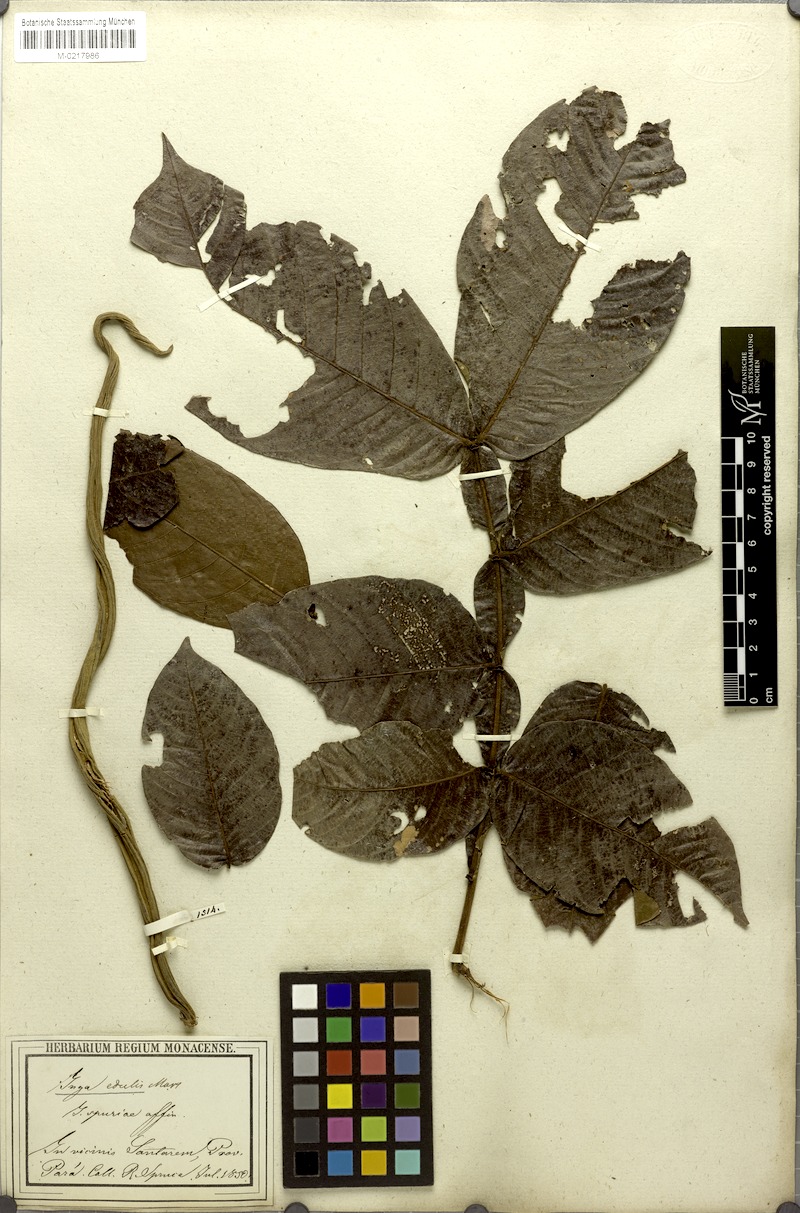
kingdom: Plantae
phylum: Tracheophyta
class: Magnoliopsida
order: Fabales
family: Fabaceae
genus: Inga
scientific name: Inga edulis
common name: Ice cream bean
